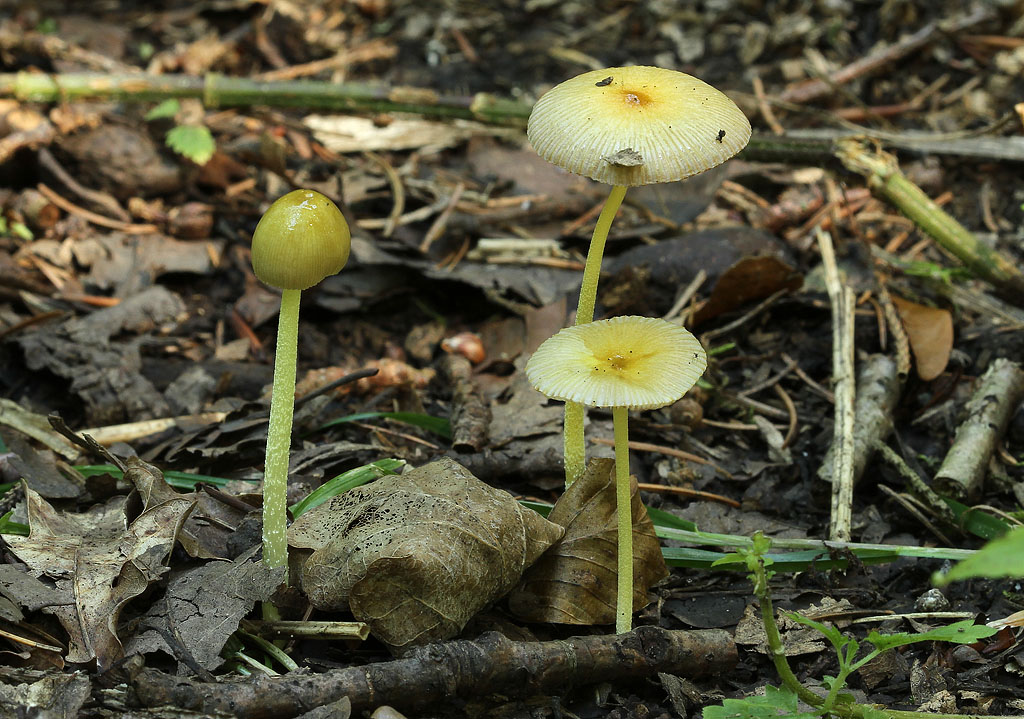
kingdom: Fungi
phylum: Basidiomycota
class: Agaricomycetes
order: Agaricales
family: Bolbitiaceae
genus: Bolbitius
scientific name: Bolbitius titubans
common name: almindelig gulhat
